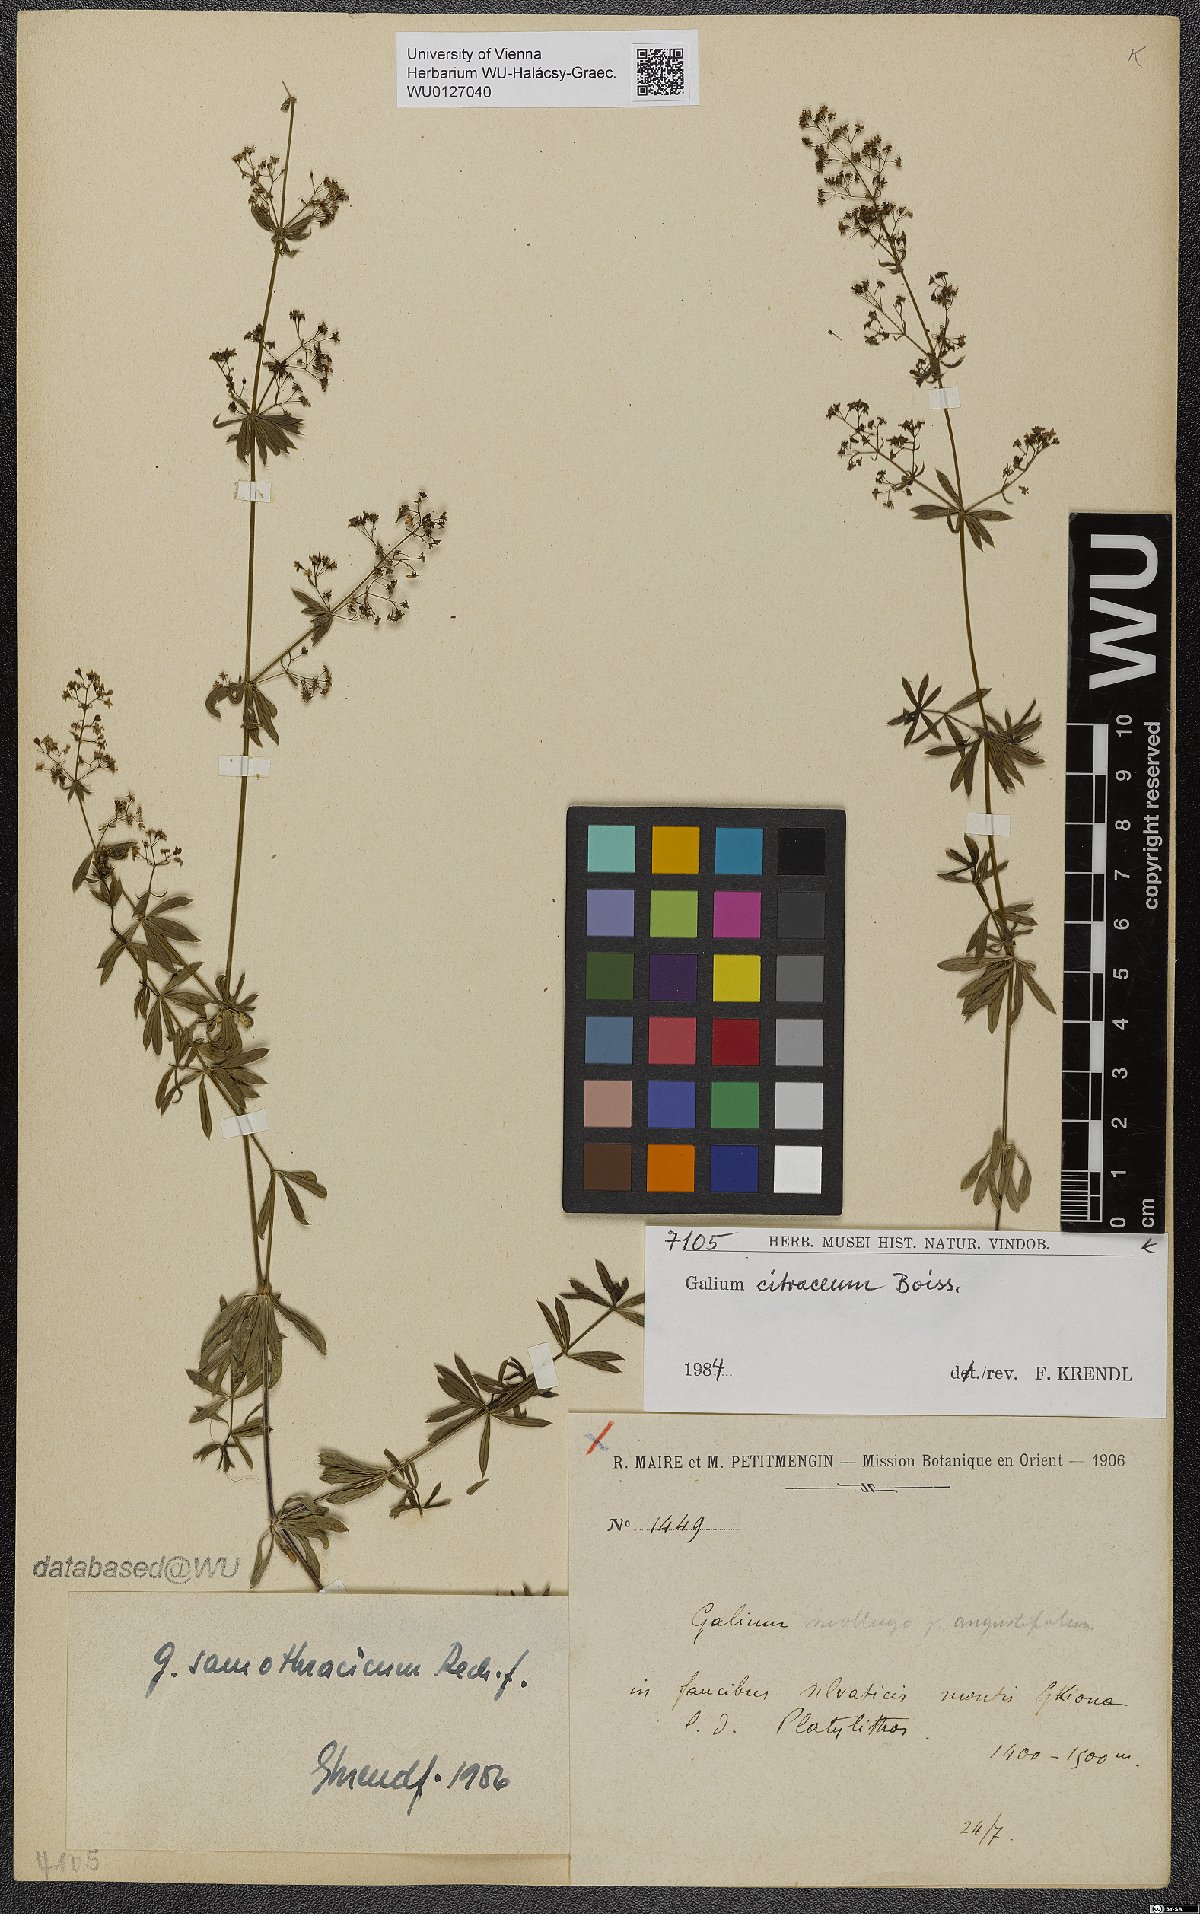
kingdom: Plantae
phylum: Tracheophyta
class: Magnoliopsida
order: Gentianales
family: Rubiaceae
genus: Galium
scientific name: Galium citraceum
